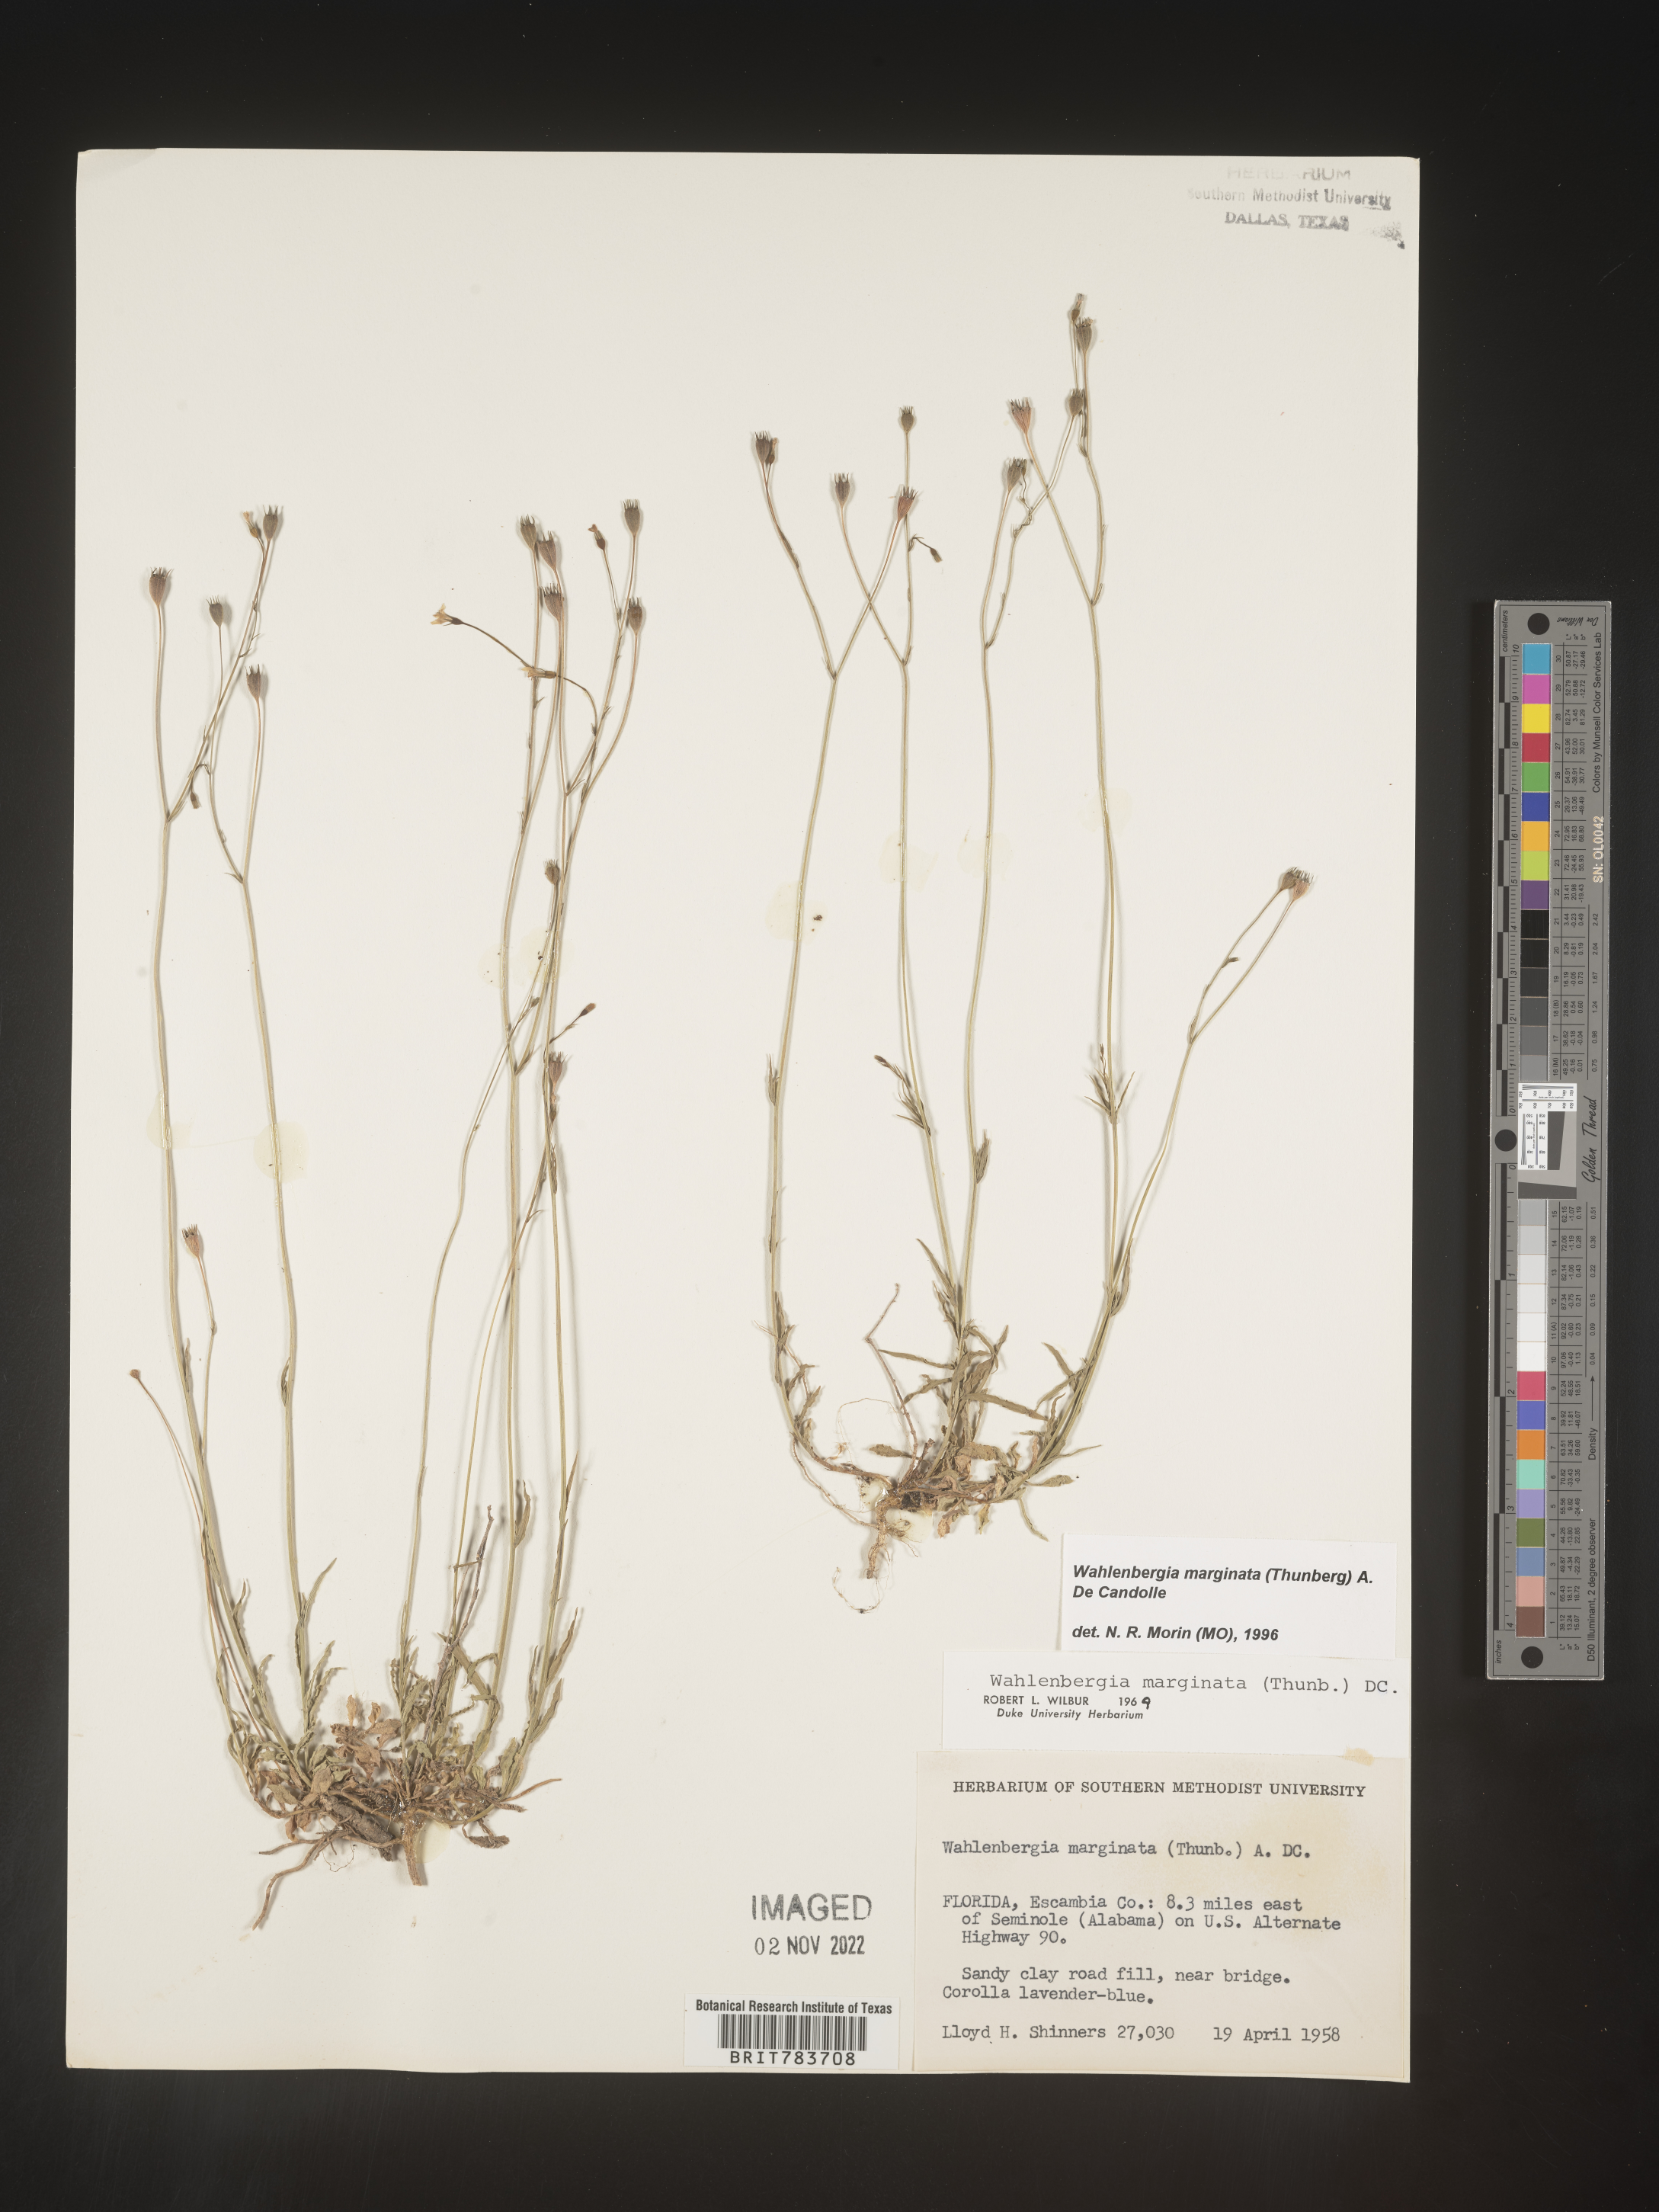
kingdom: Plantae
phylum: Tracheophyta
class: Magnoliopsida
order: Asterales
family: Campanulaceae
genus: Wahlenbergia
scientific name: Wahlenbergia marginata
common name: Southern rockbell
